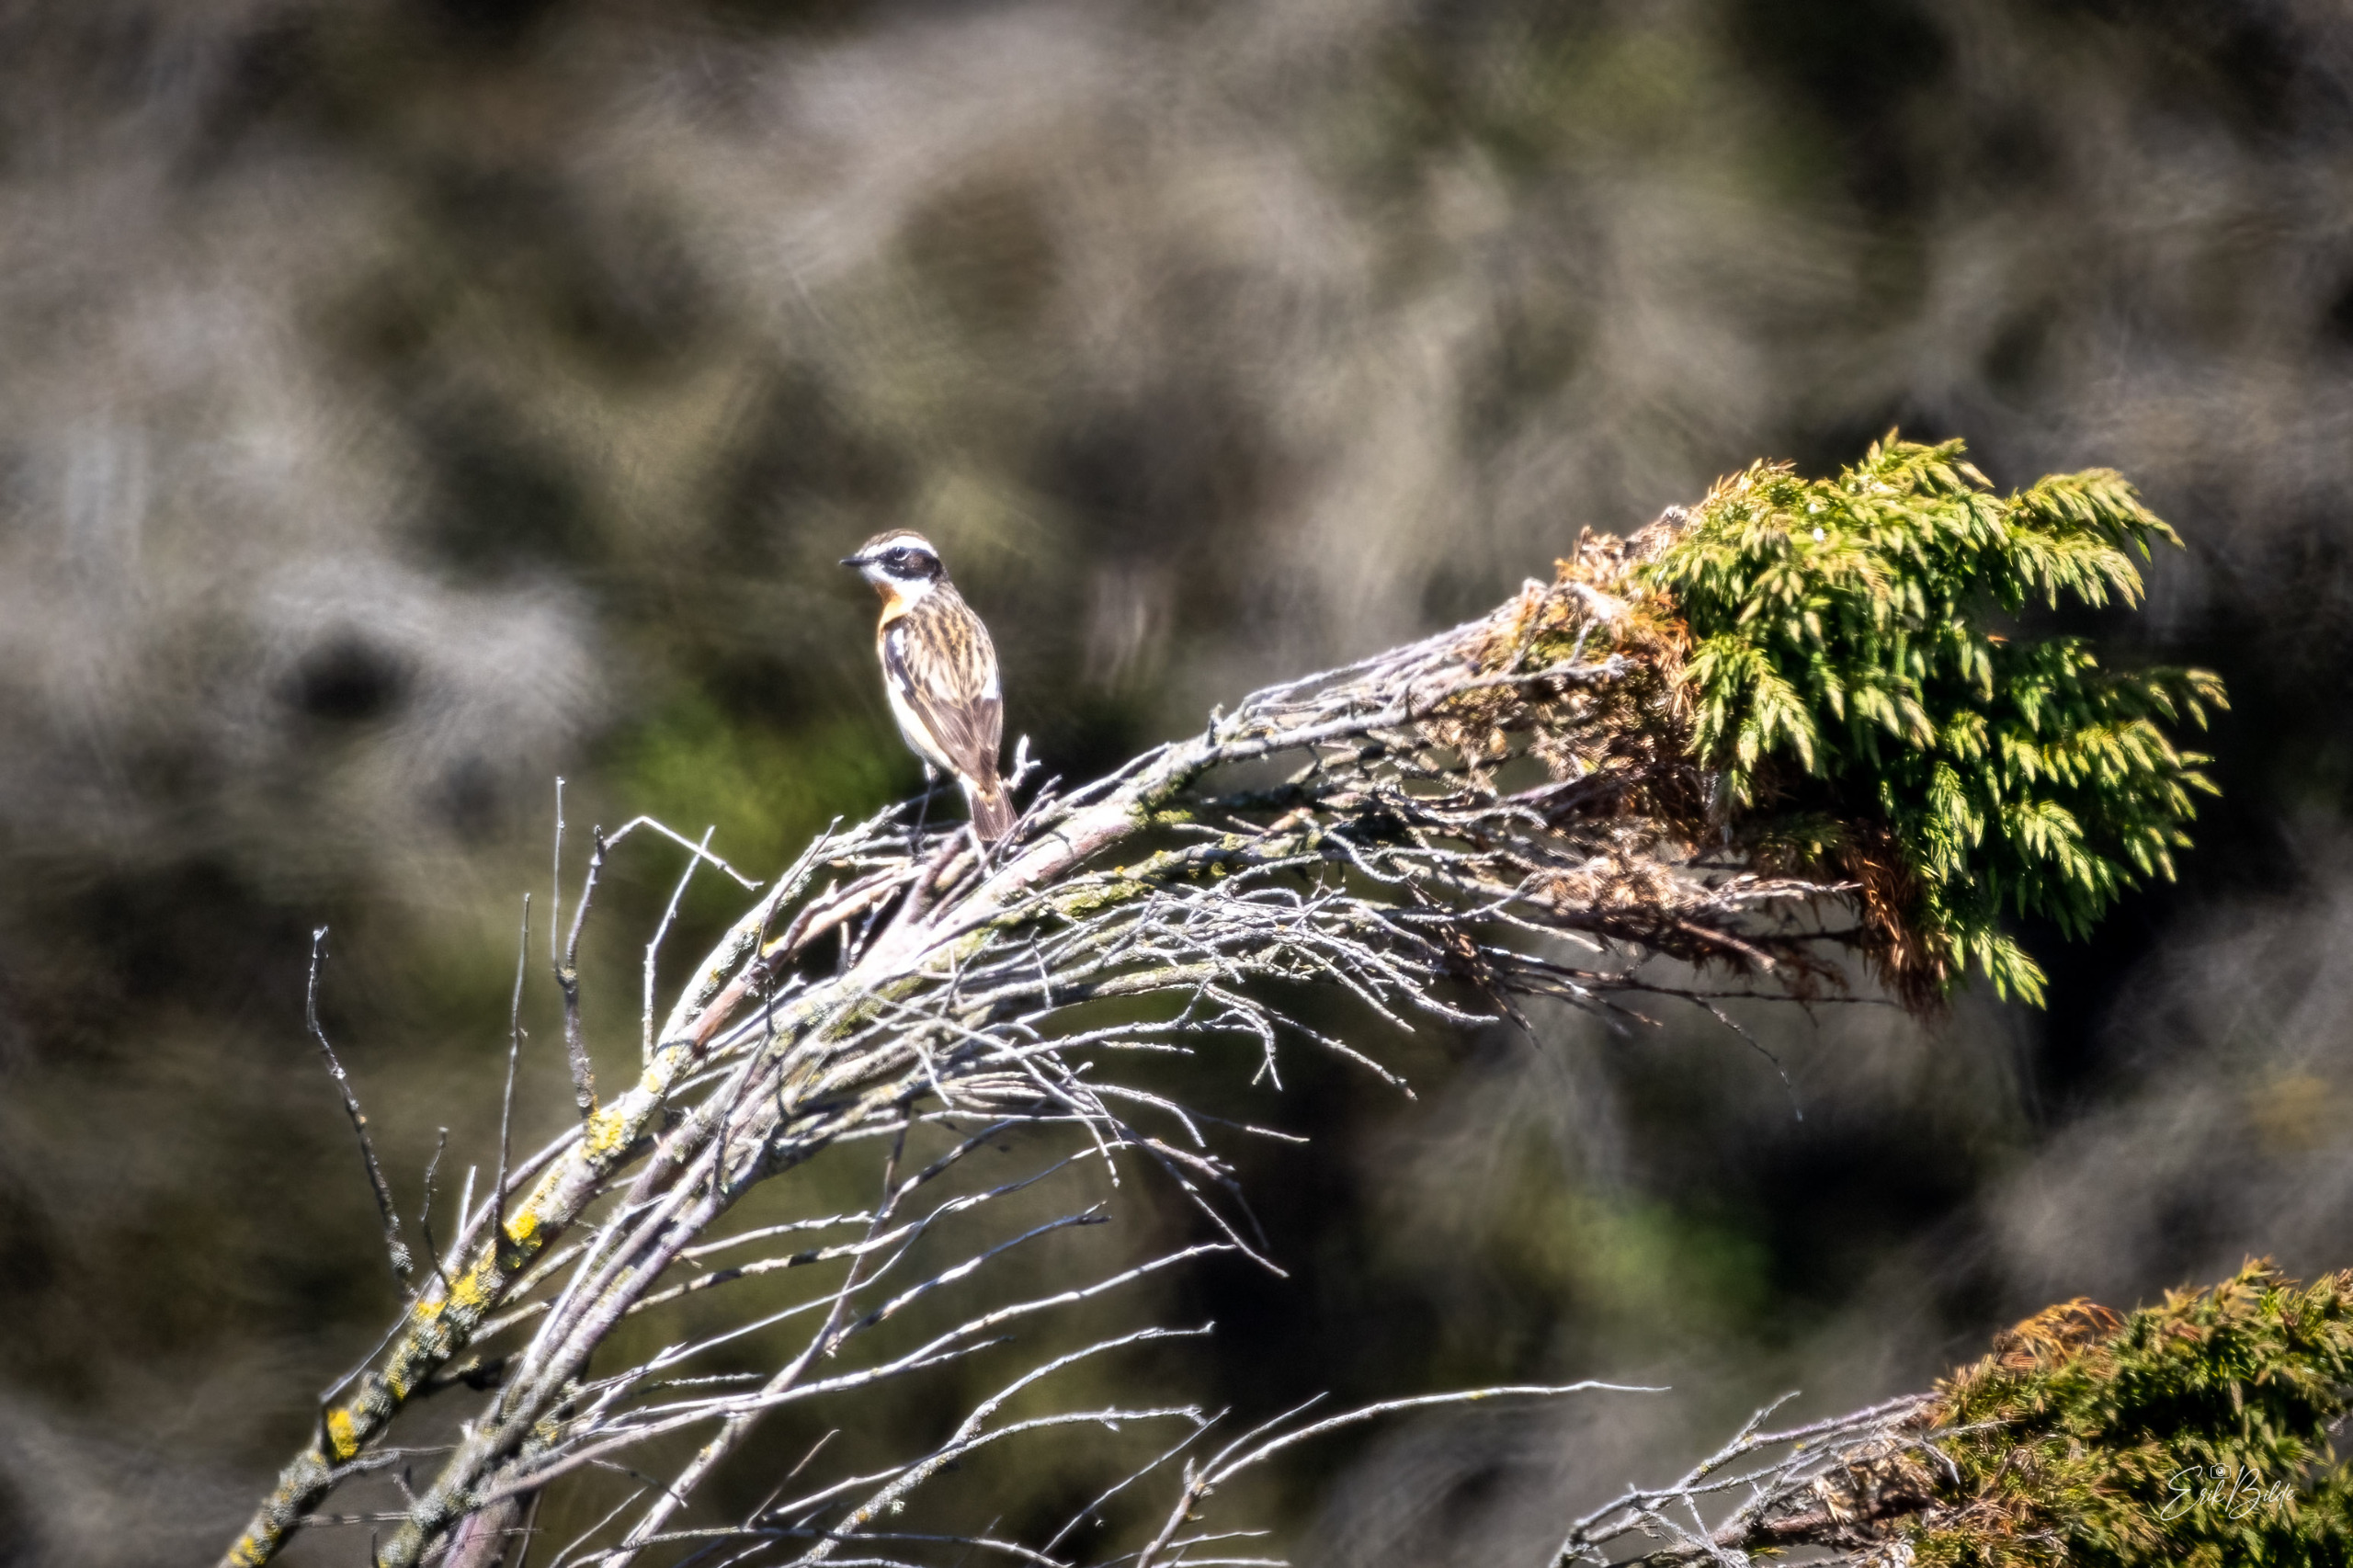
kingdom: Animalia
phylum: Chordata
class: Aves
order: Passeriformes
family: Muscicapidae
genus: Saxicola
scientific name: Saxicola rubetra
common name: Bynkefugl
